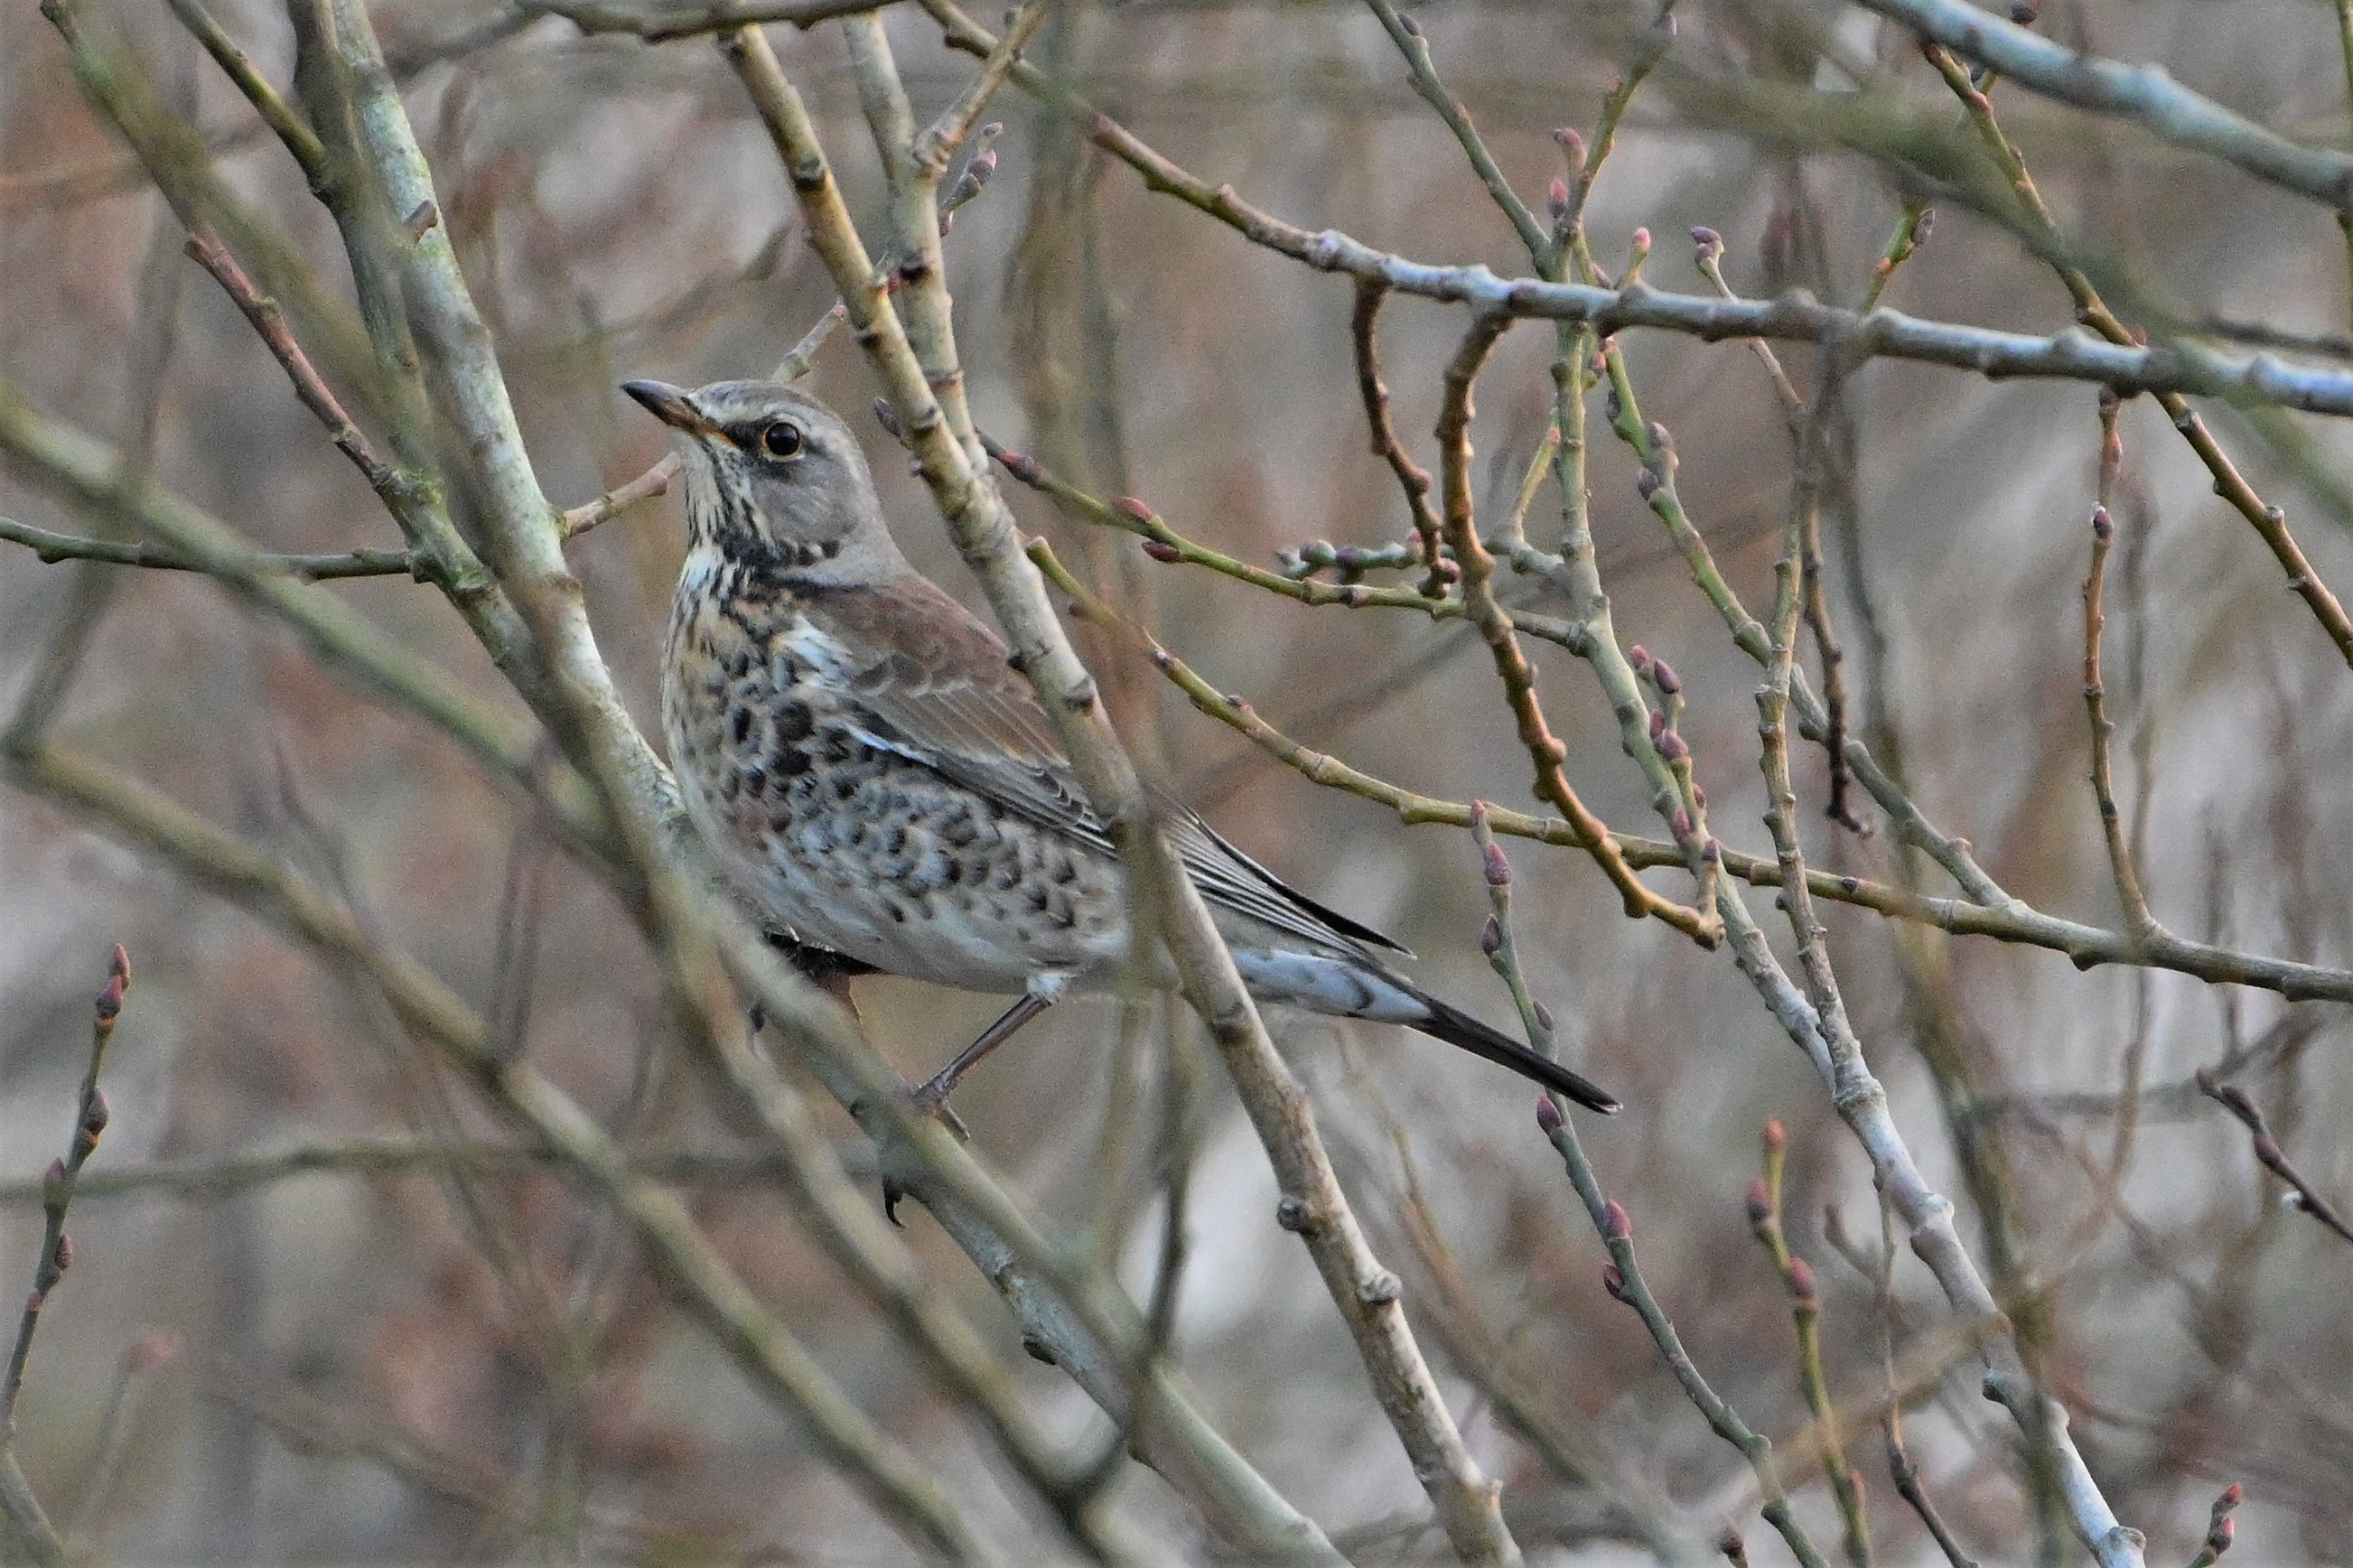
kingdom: Animalia
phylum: Chordata
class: Aves
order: Passeriformes
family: Turdidae
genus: Turdus
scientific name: Turdus pilaris
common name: Sjagger
